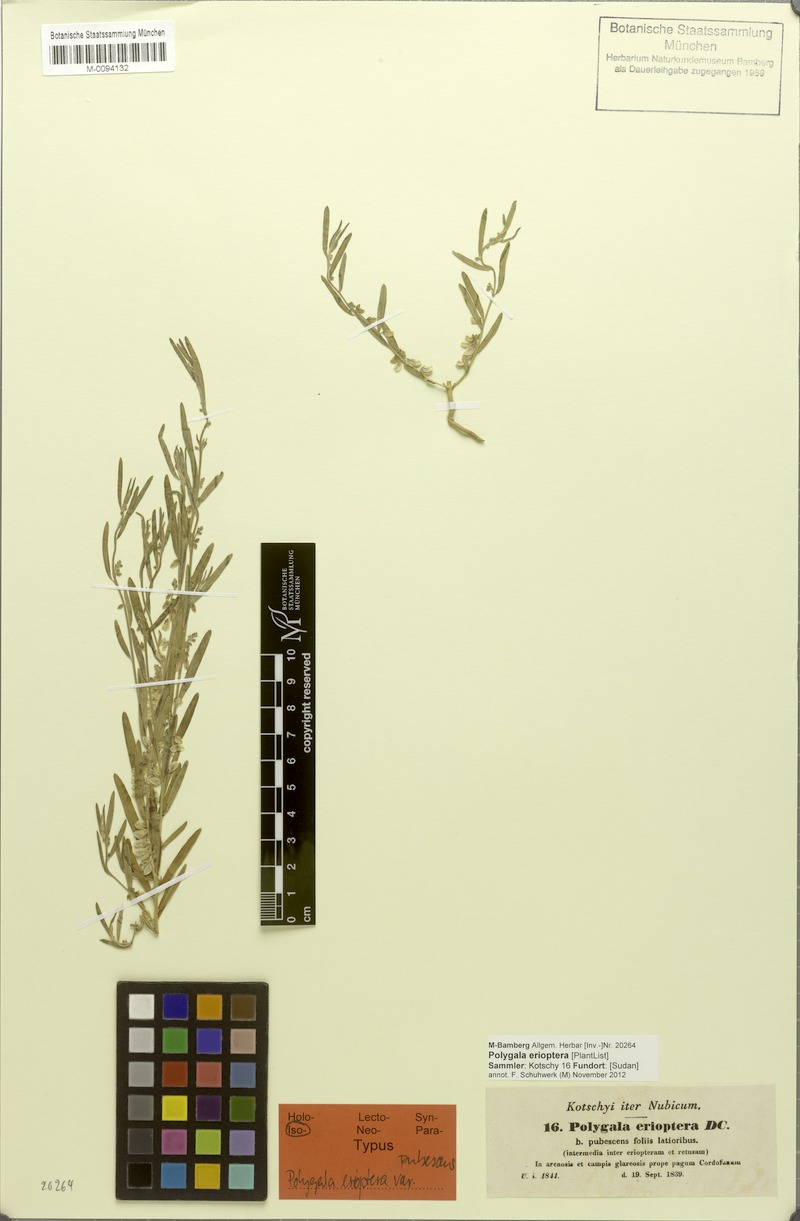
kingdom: Plantae
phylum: Tracheophyta
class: Magnoliopsida
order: Fabales
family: Polygalaceae
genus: Polygala
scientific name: Polygala erioptera
